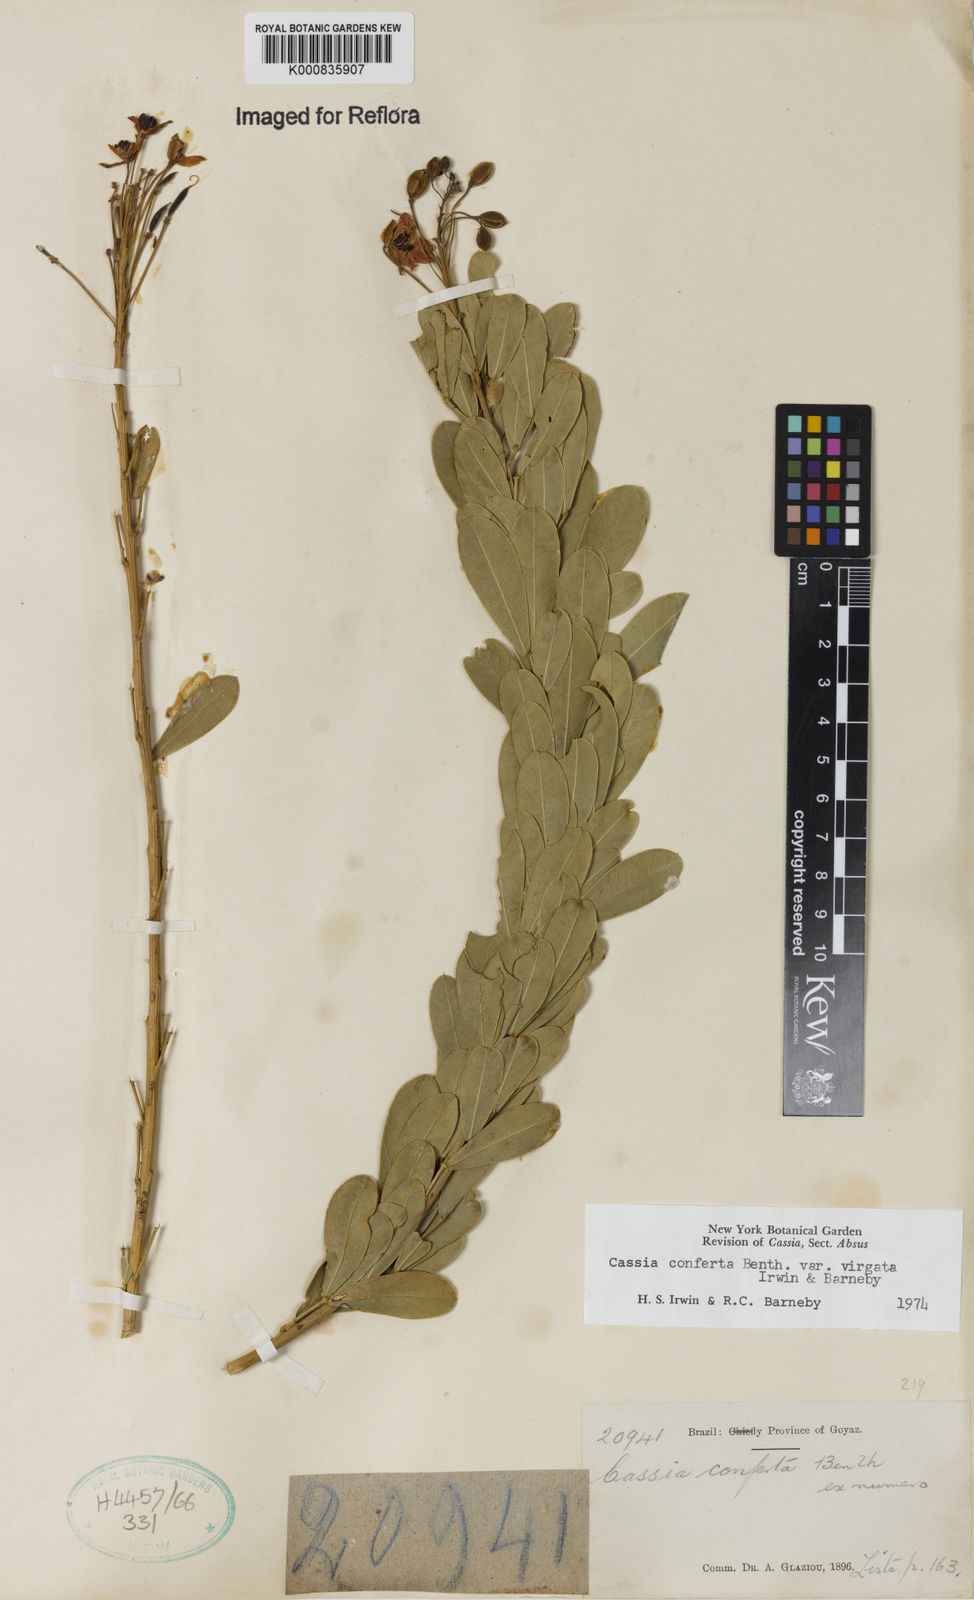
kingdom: Plantae
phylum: Tracheophyta
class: Magnoliopsida
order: Fabales
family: Fabaceae
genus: Chamaecrista
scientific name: Chamaecrista conferta
